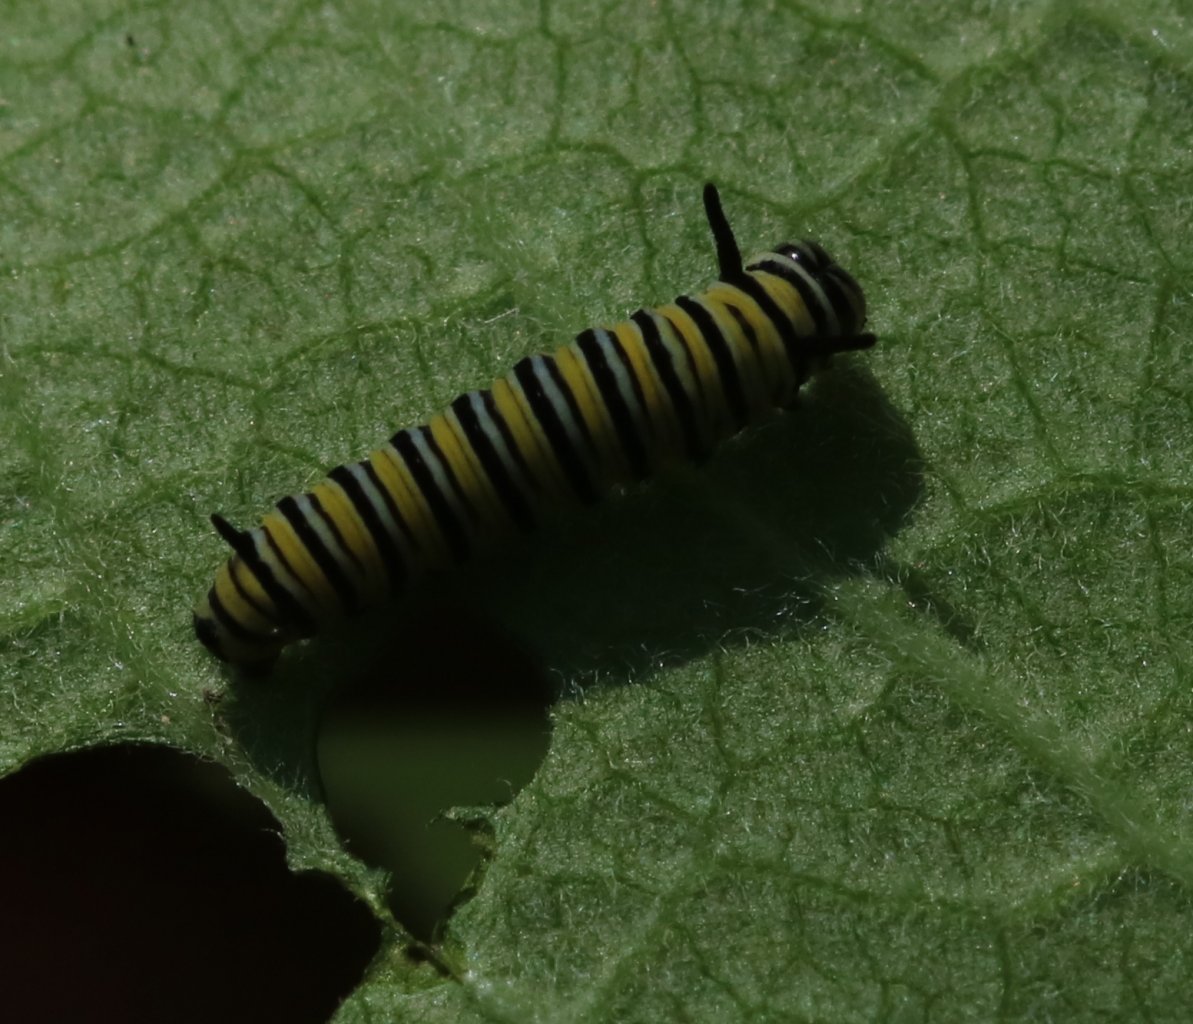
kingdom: Animalia
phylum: Arthropoda
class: Insecta
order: Lepidoptera
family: Nymphalidae
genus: Danaus
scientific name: Danaus plexippus
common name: Monarch
